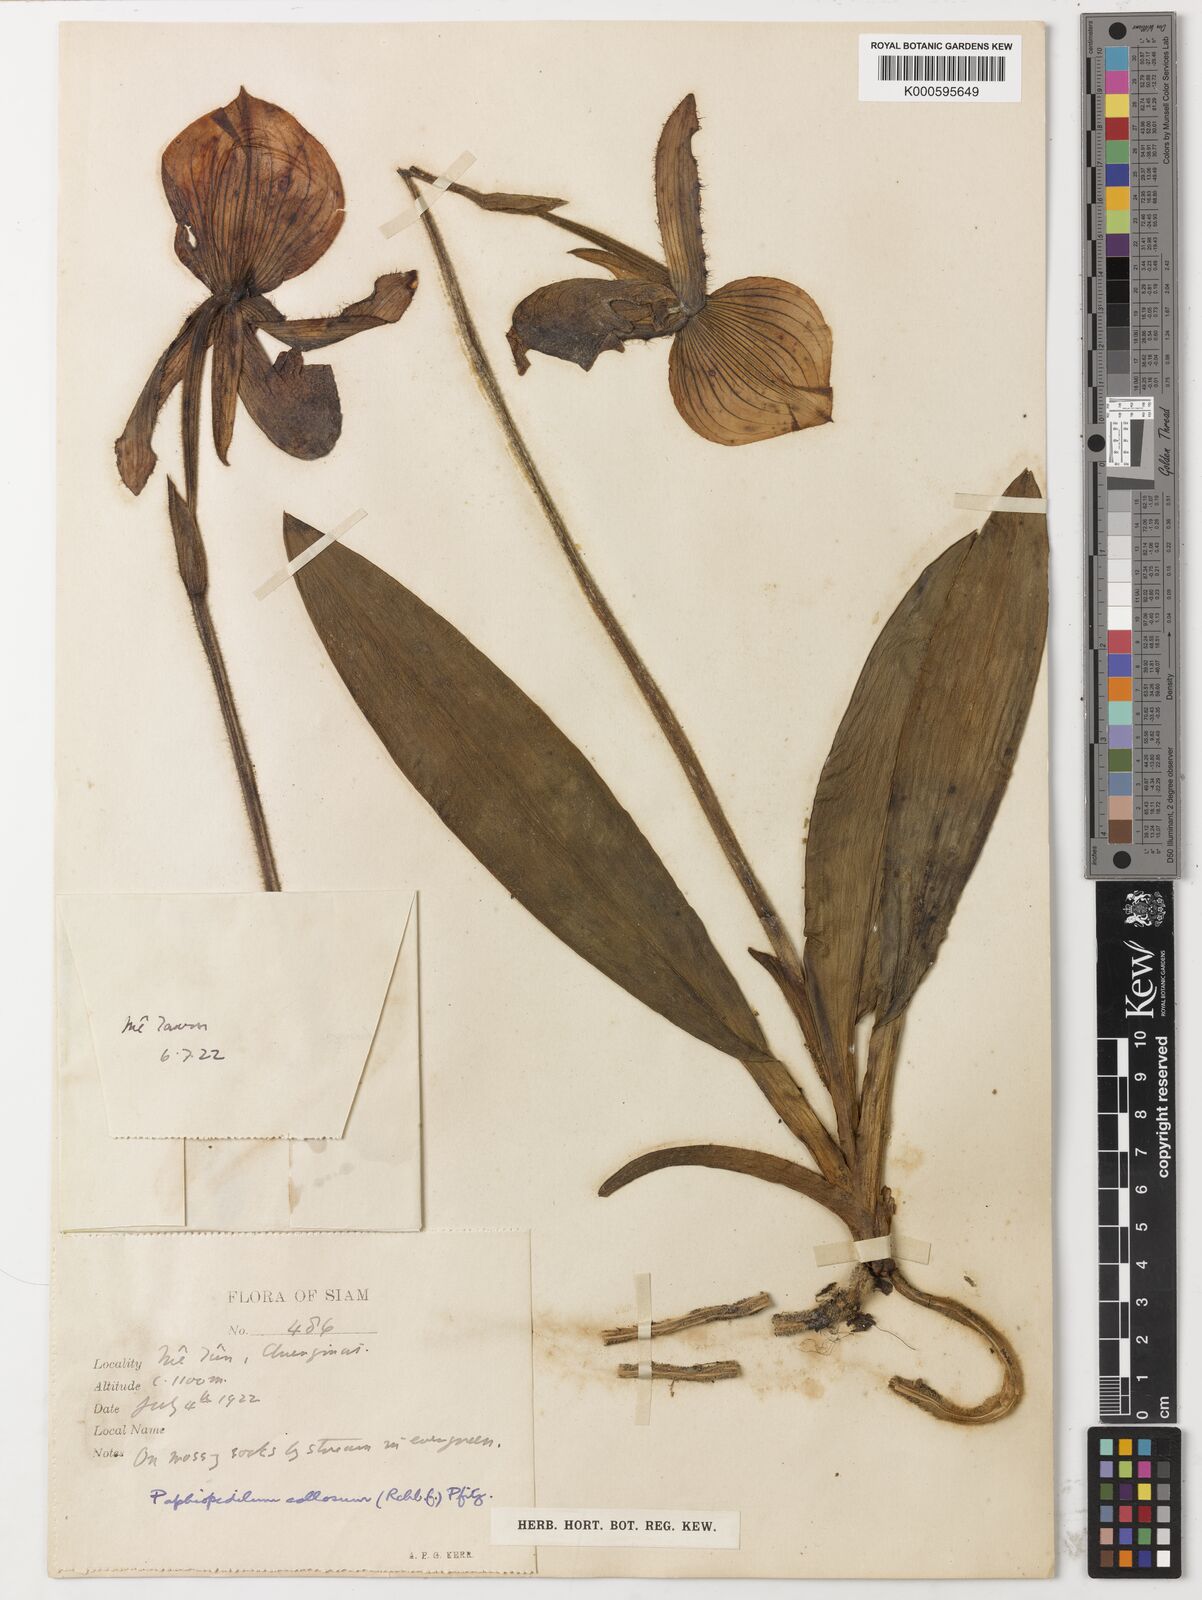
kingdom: Plantae
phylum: Tracheophyta
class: Liliopsida
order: Asparagales
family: Orchidaceae
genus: Paphiopedilum
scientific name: Paphiopedilum callosum
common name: Callus paphiopedilum
